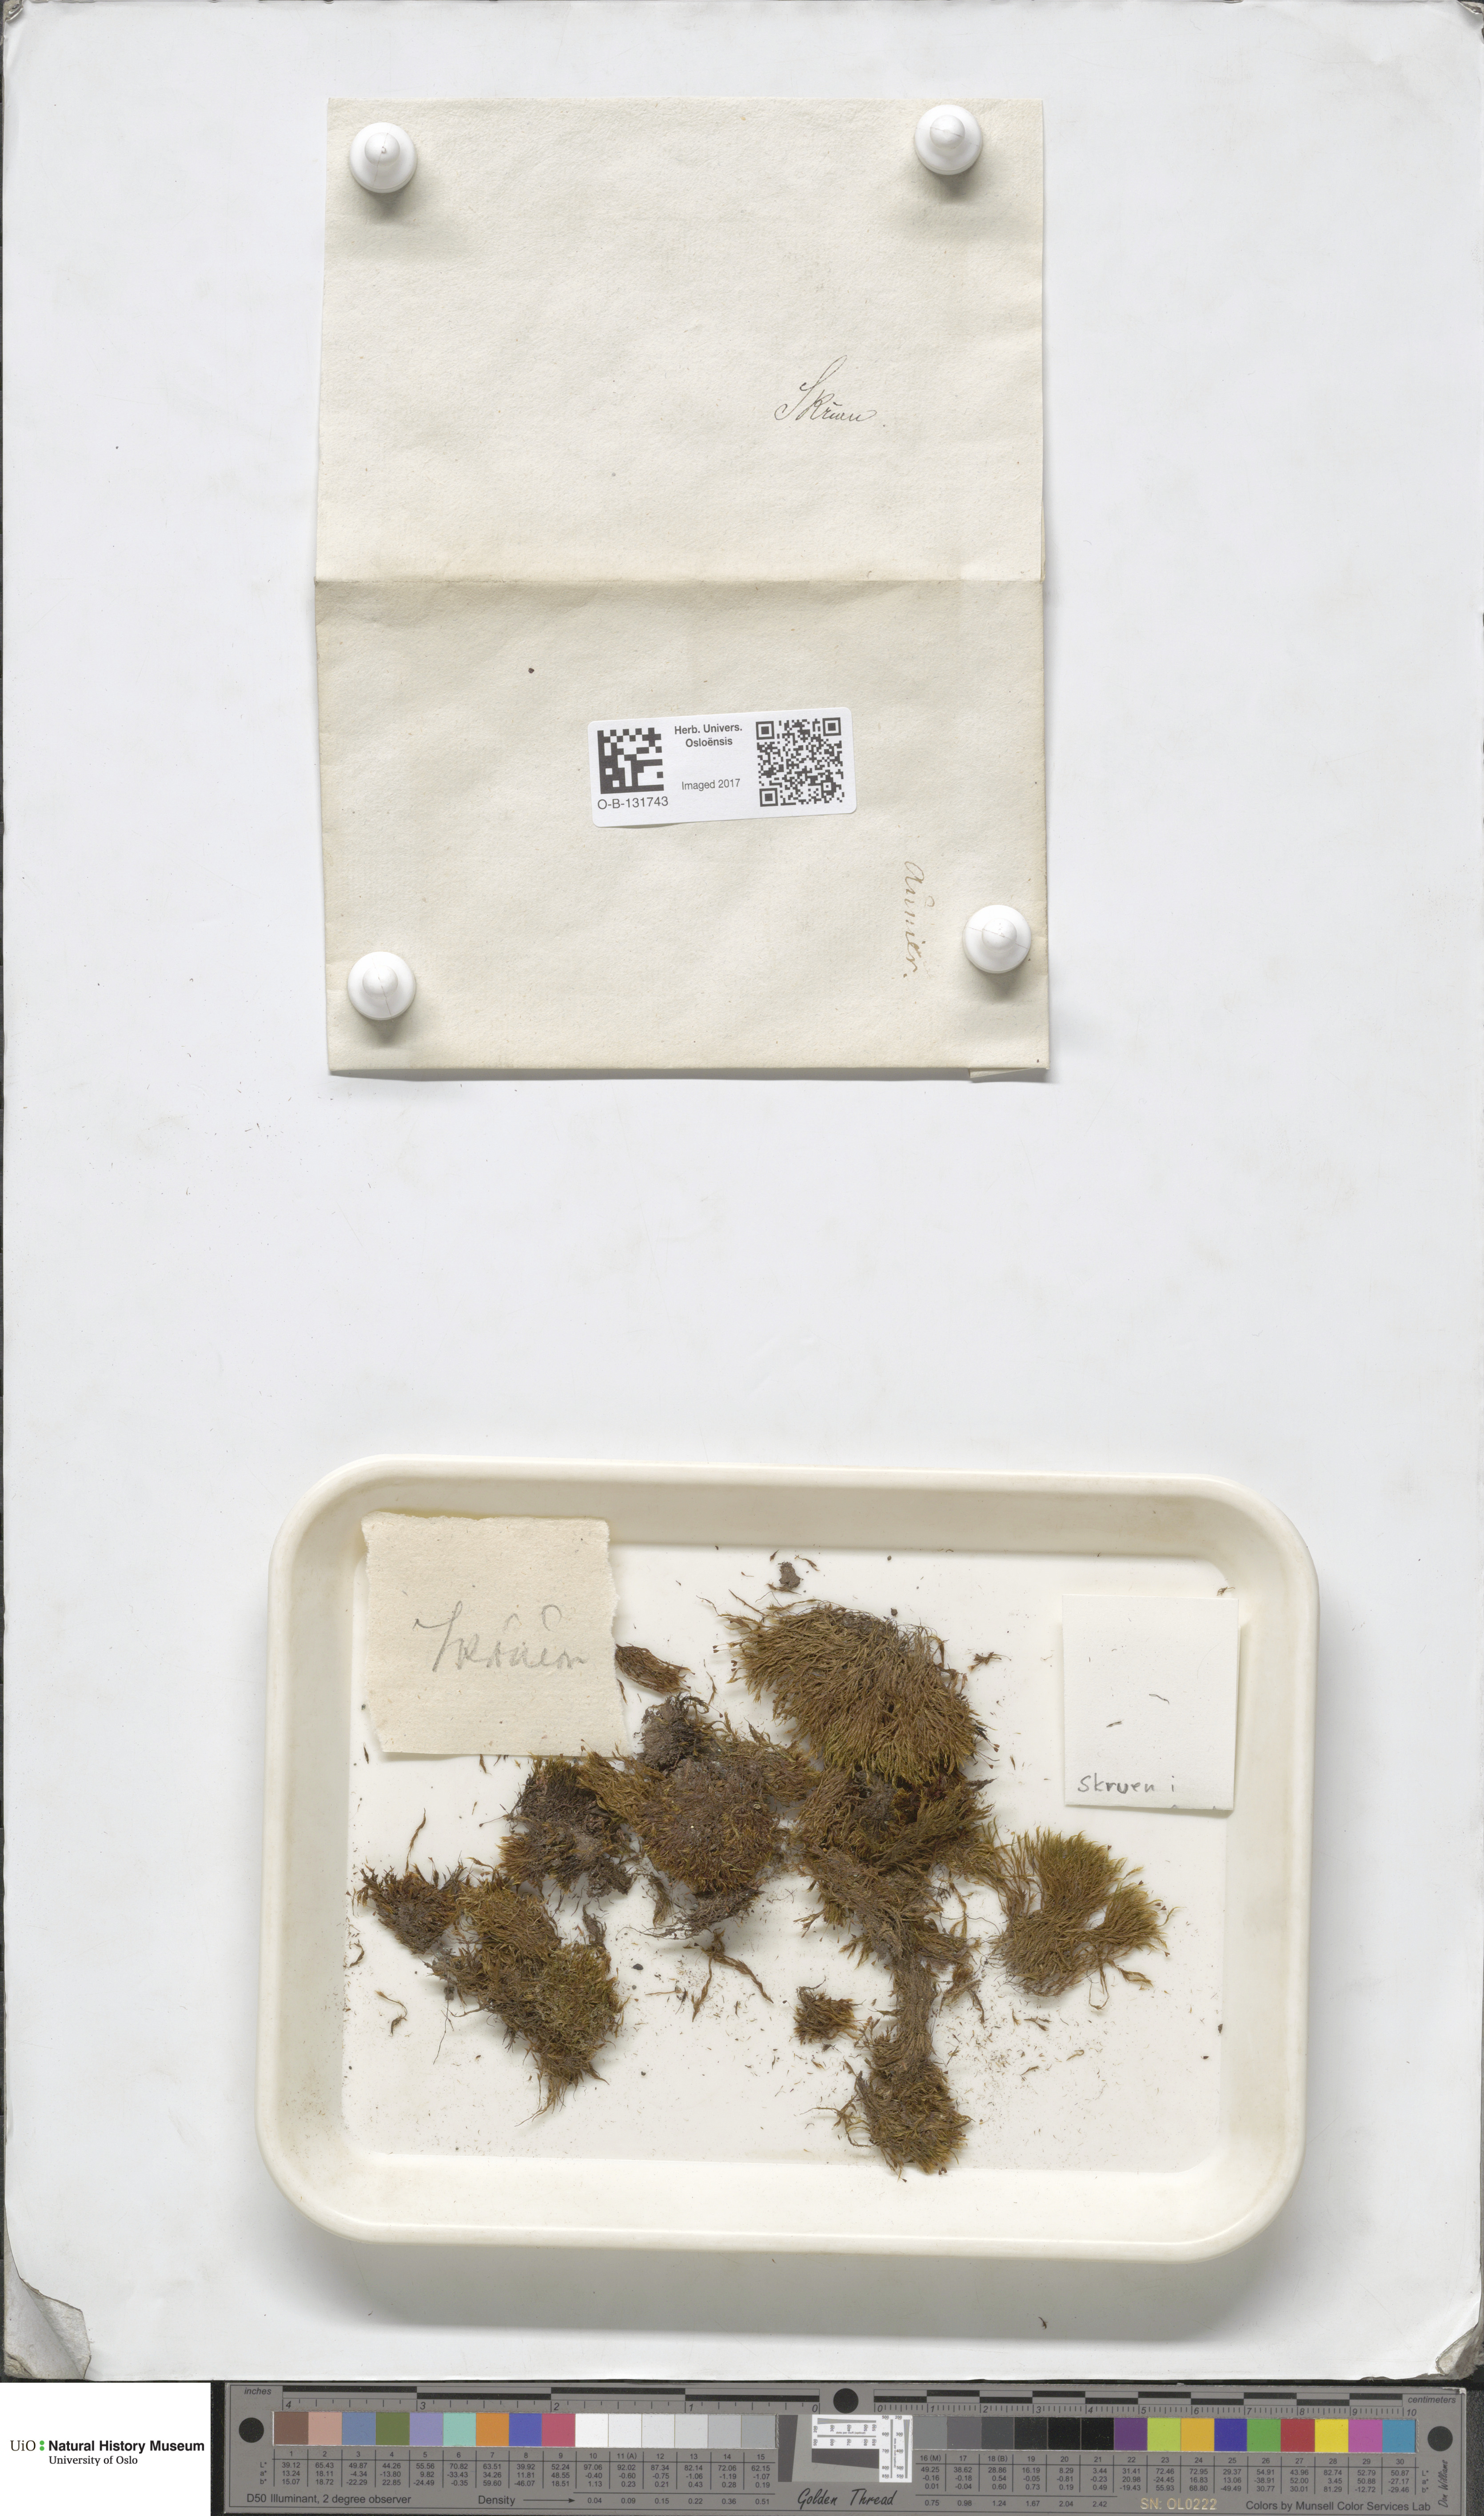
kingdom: Plantae
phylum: Bryophyta
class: Bryopsida
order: Grimmiales
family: Seligeriaceae
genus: Blindia
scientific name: Blindia acuta
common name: Sharp-leaved blind's moss
